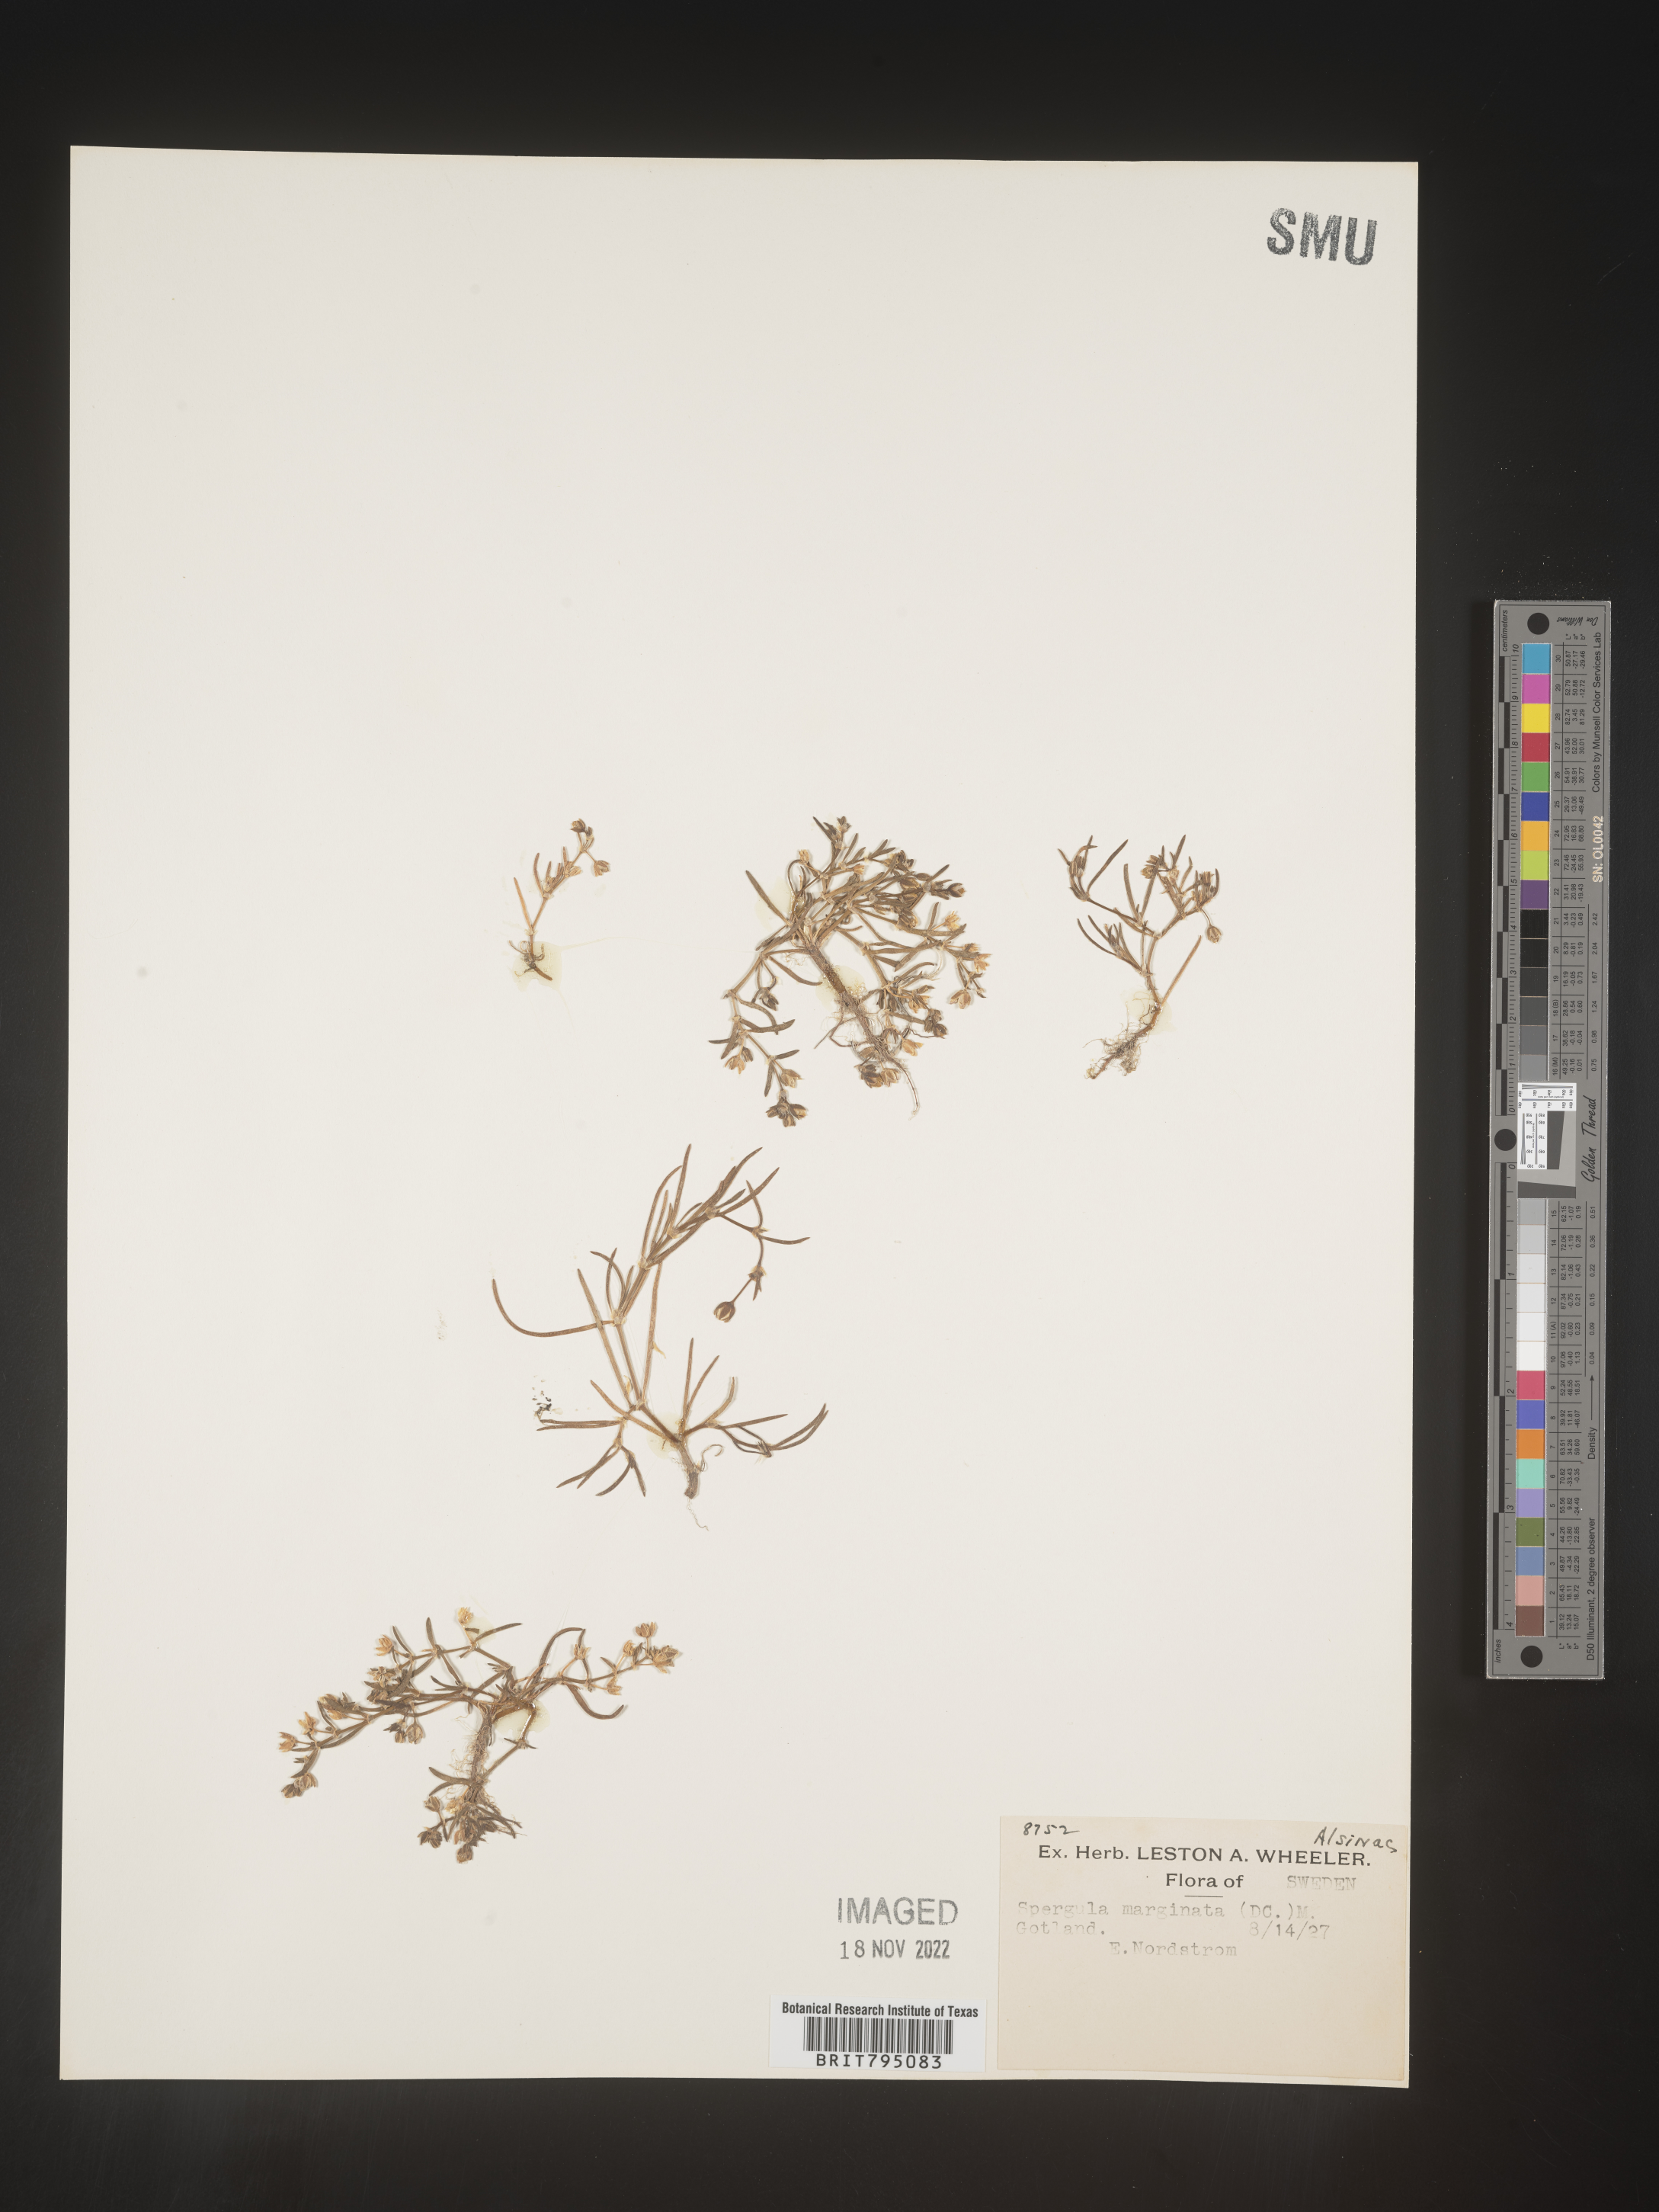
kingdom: Plantae
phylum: Tracheophyta
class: Magnoliopsida
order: Caryophyllales
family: Caryophyllaceae
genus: Spergularia
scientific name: Spergularia media
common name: Greater sea-spurrey
